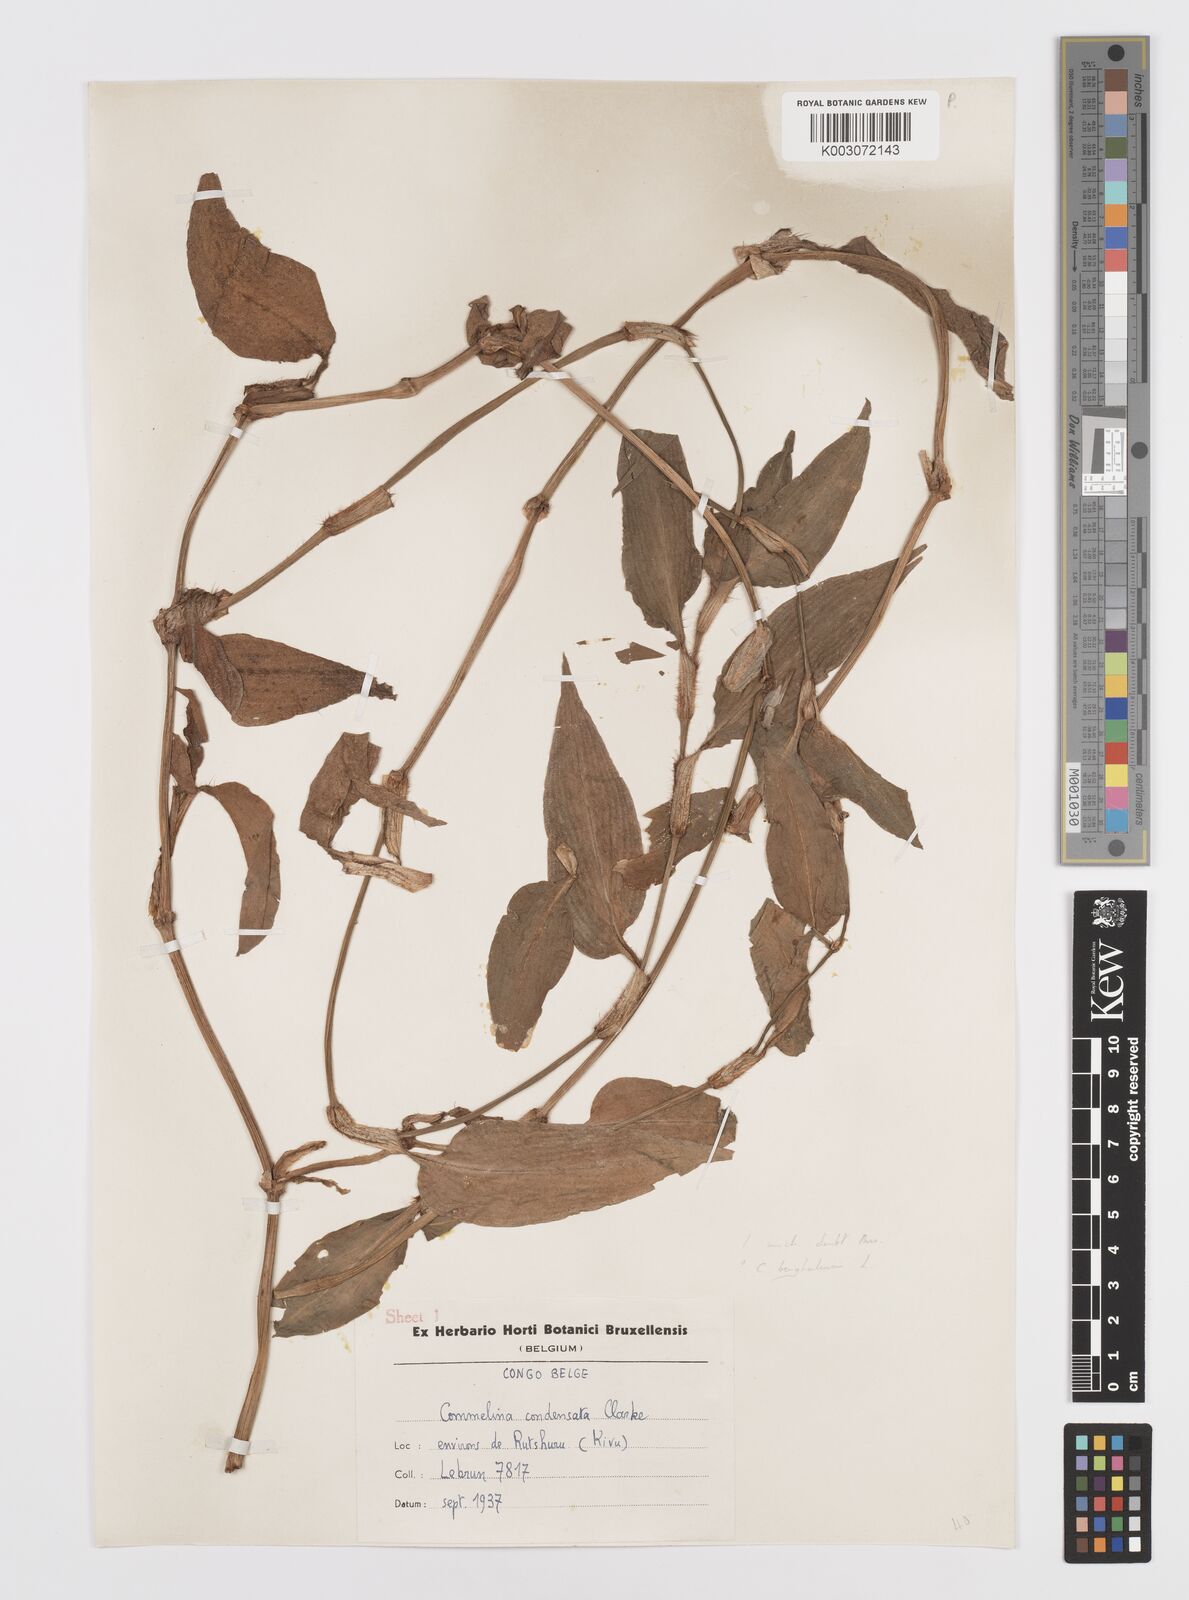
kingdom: Plantae
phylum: Tracheophyta
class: Liliopsida
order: Commelinales
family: Commelinaceae
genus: Commelina
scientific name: Commelina benghalensis
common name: Jio
